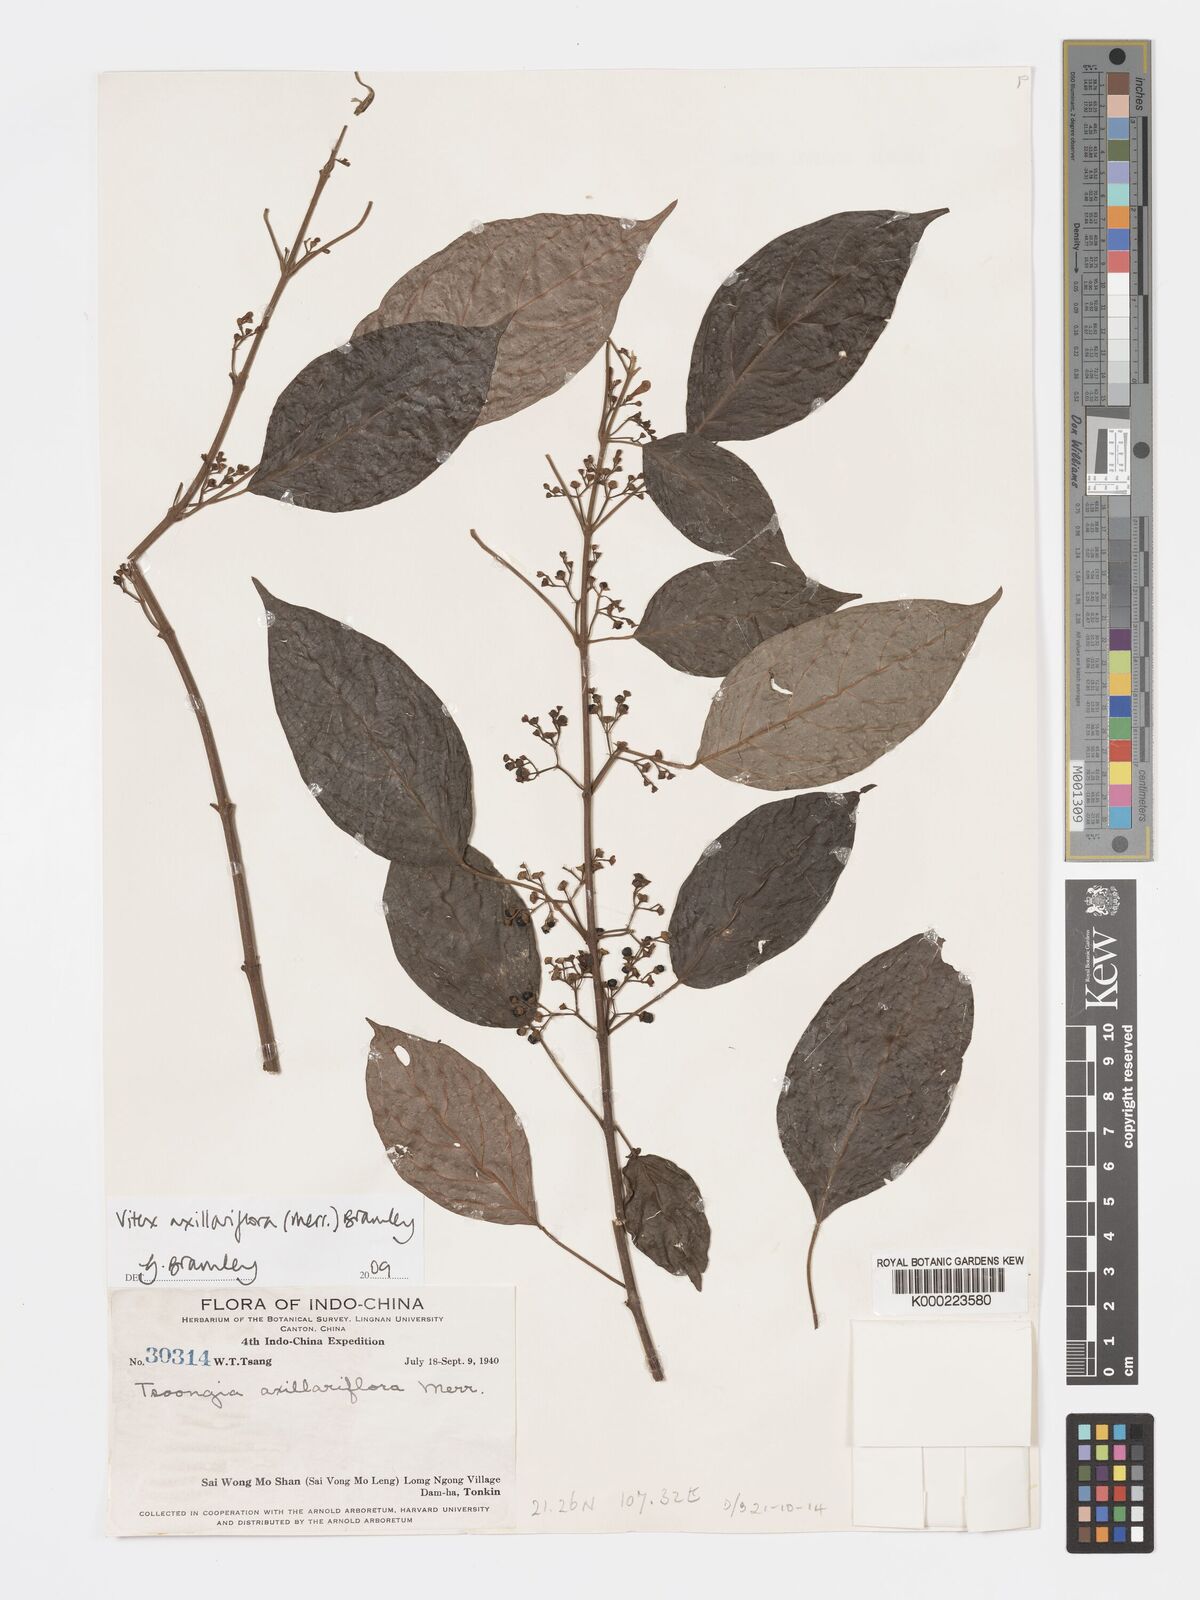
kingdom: Plantae
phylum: Tracheophyta
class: Magnoliopsida
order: Lamiales
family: Lamiaceae
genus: Vitex
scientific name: Vitex axillariflora
